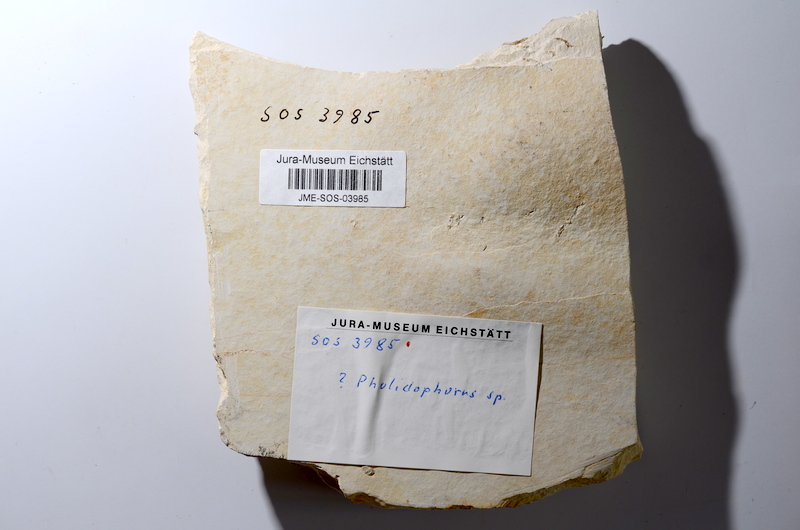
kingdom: Animalia
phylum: Chordata
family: Ankylophoridae
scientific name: Ankylophoridae
